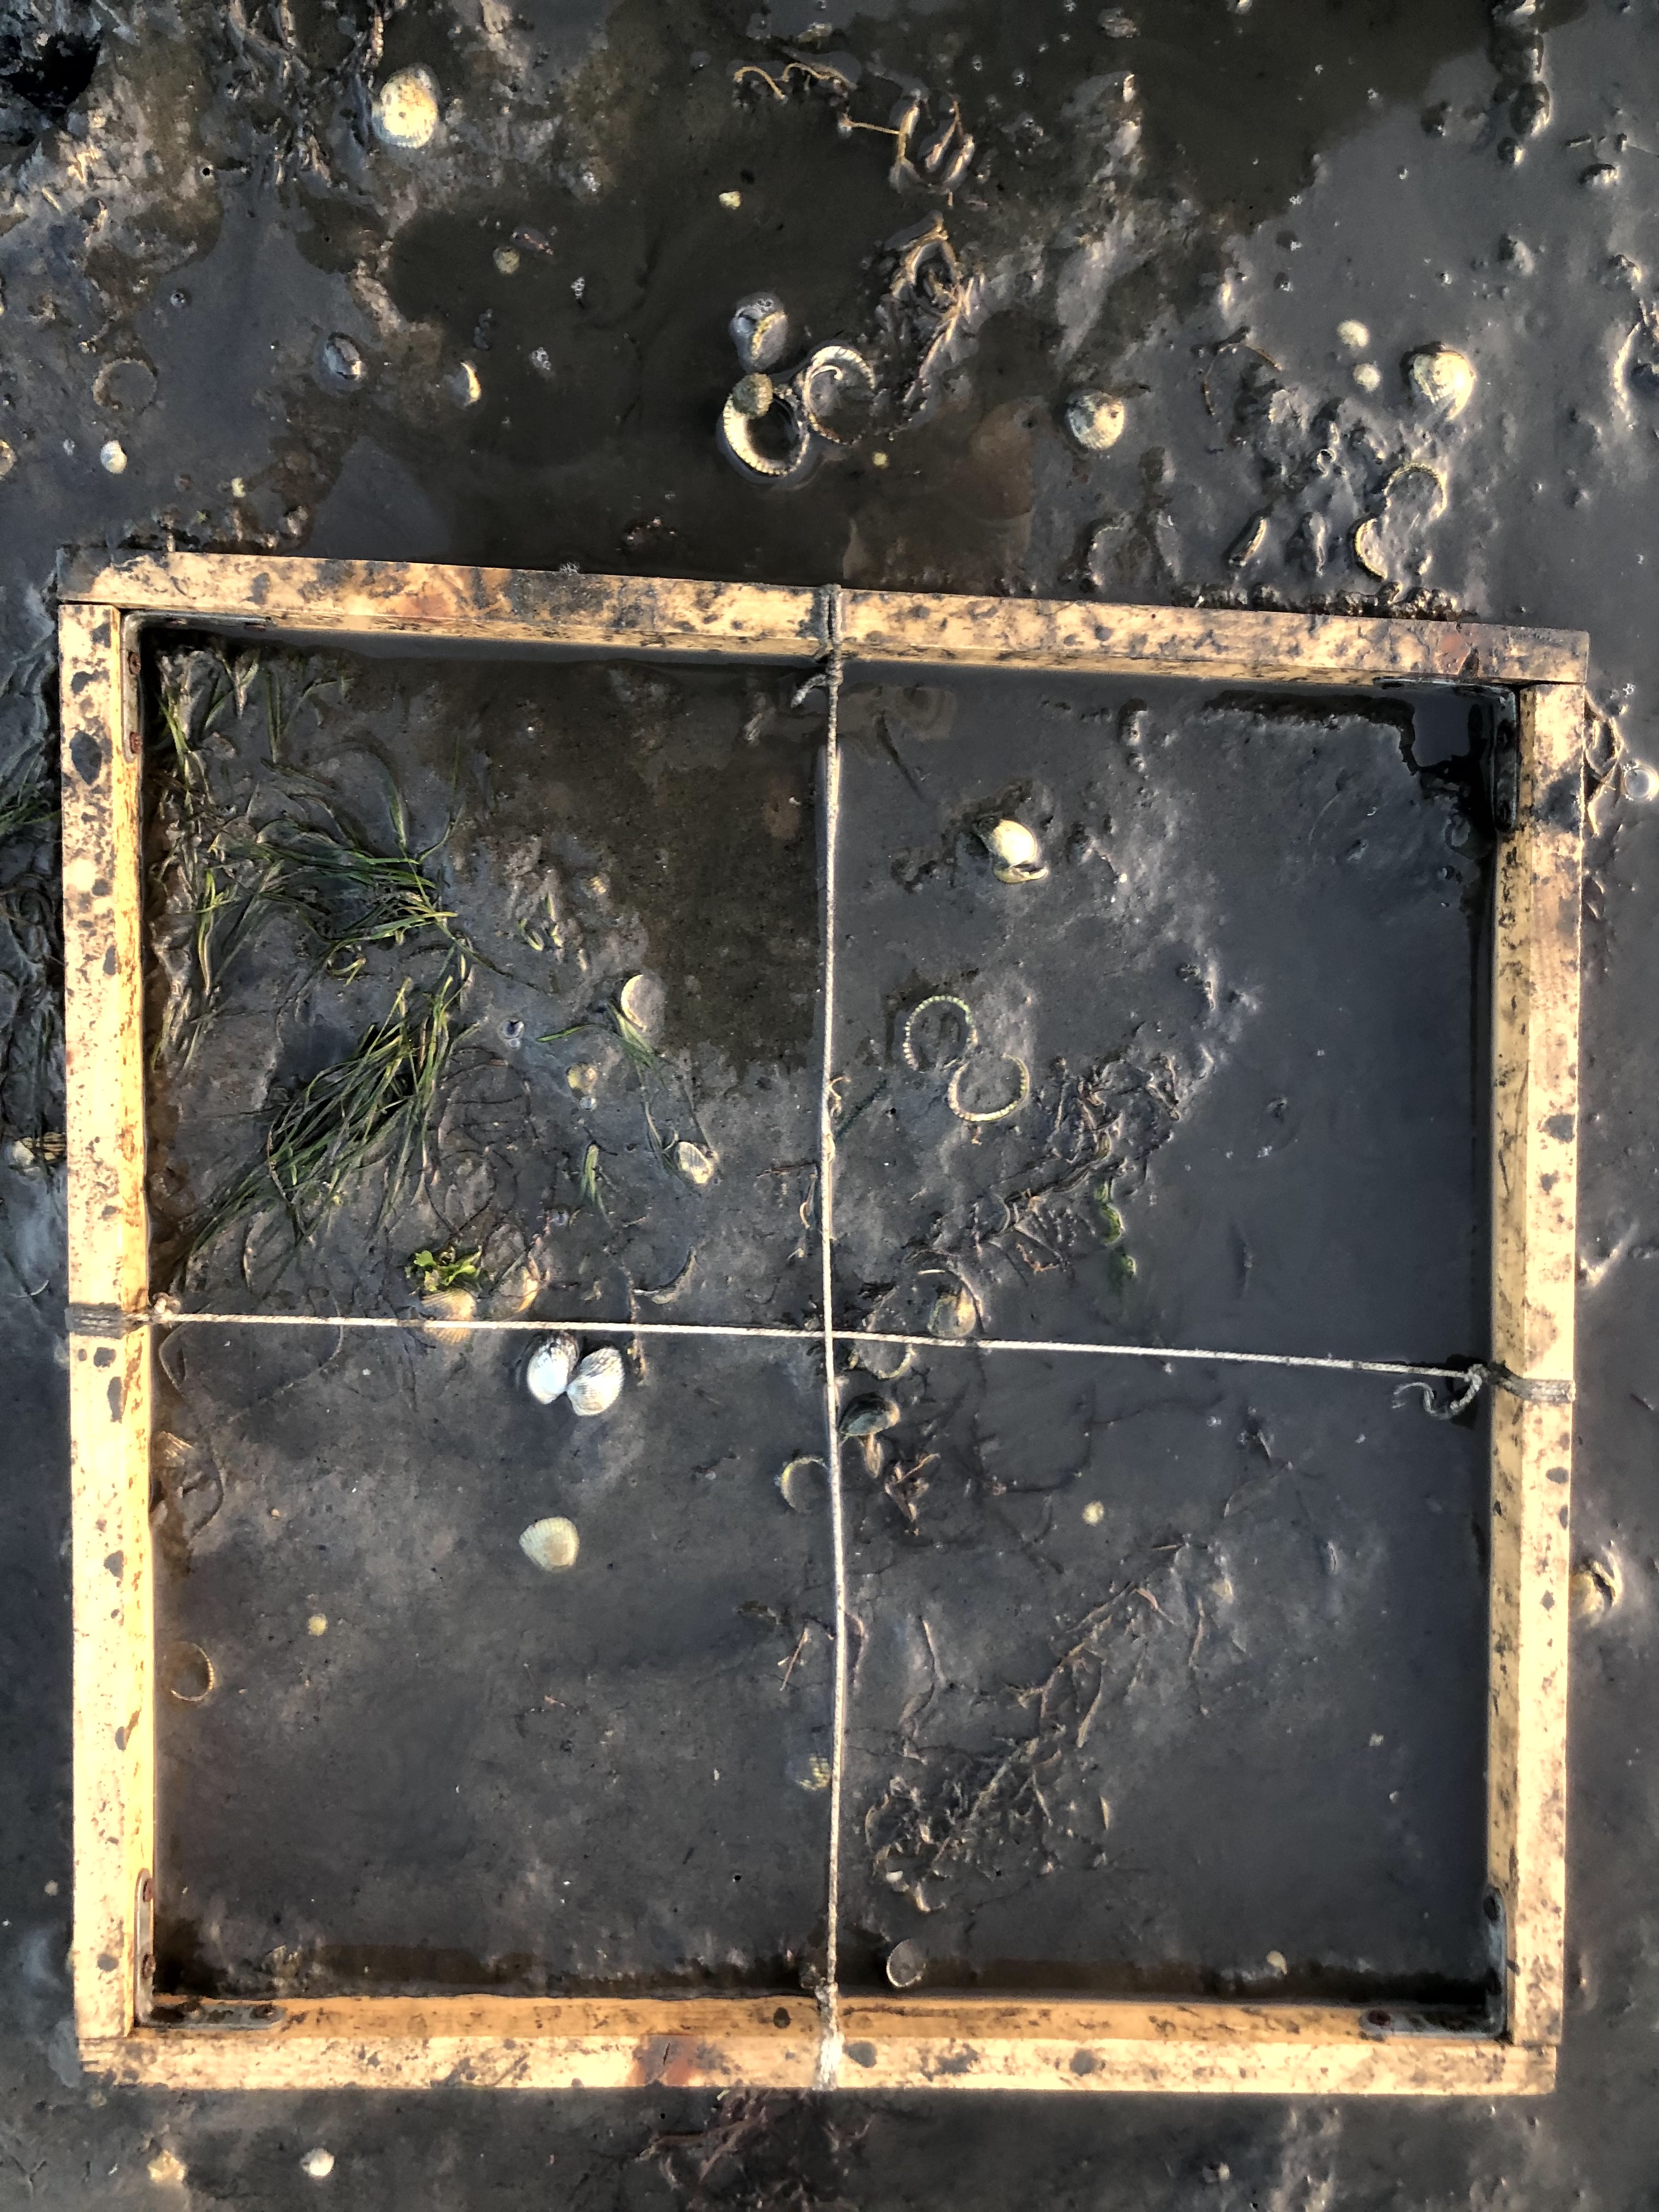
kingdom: Plantae
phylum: Tracheophyta
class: Liliopsida
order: Alismatales
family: Zosteraceae
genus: Zostera
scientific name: Zostera noltii
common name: Dwarf eelgrass
